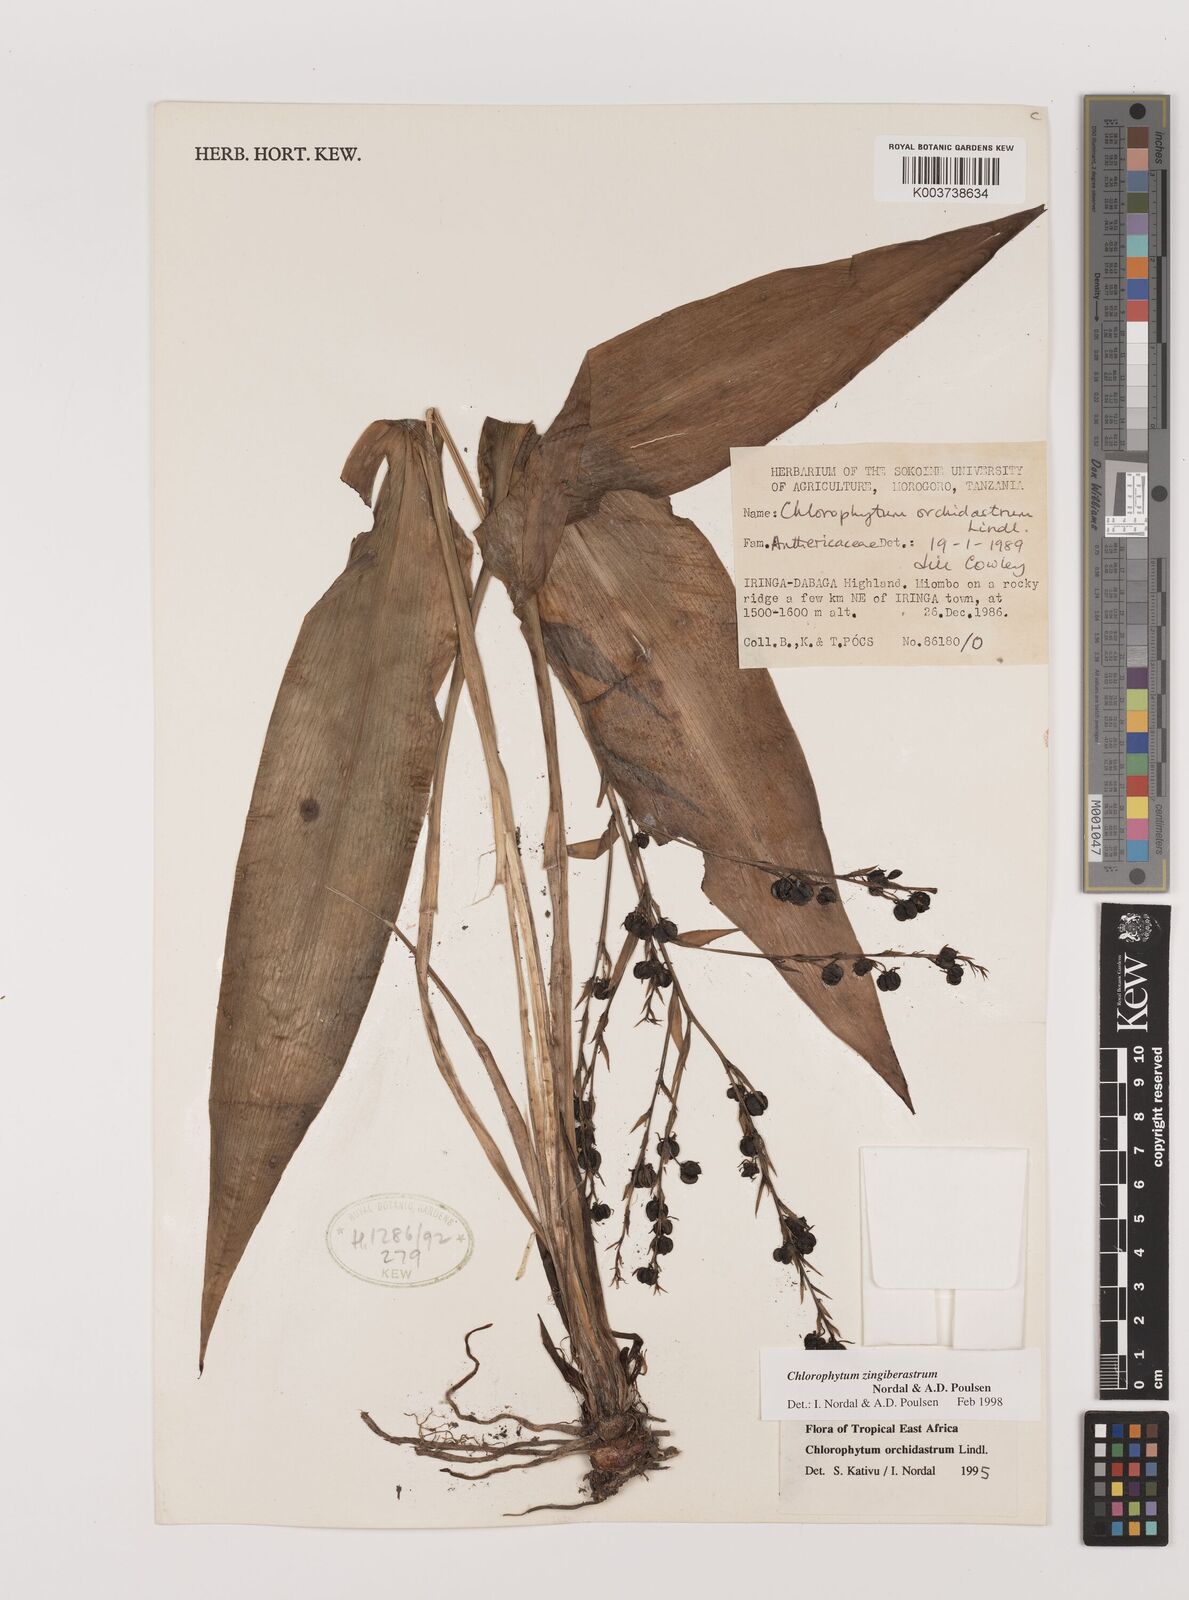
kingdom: Plantae
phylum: Tracheophyta
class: Liliopsida
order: Asparagales
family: Asparagaceae
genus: Chlorophytum
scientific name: Chlorophytum zingiberastrum
